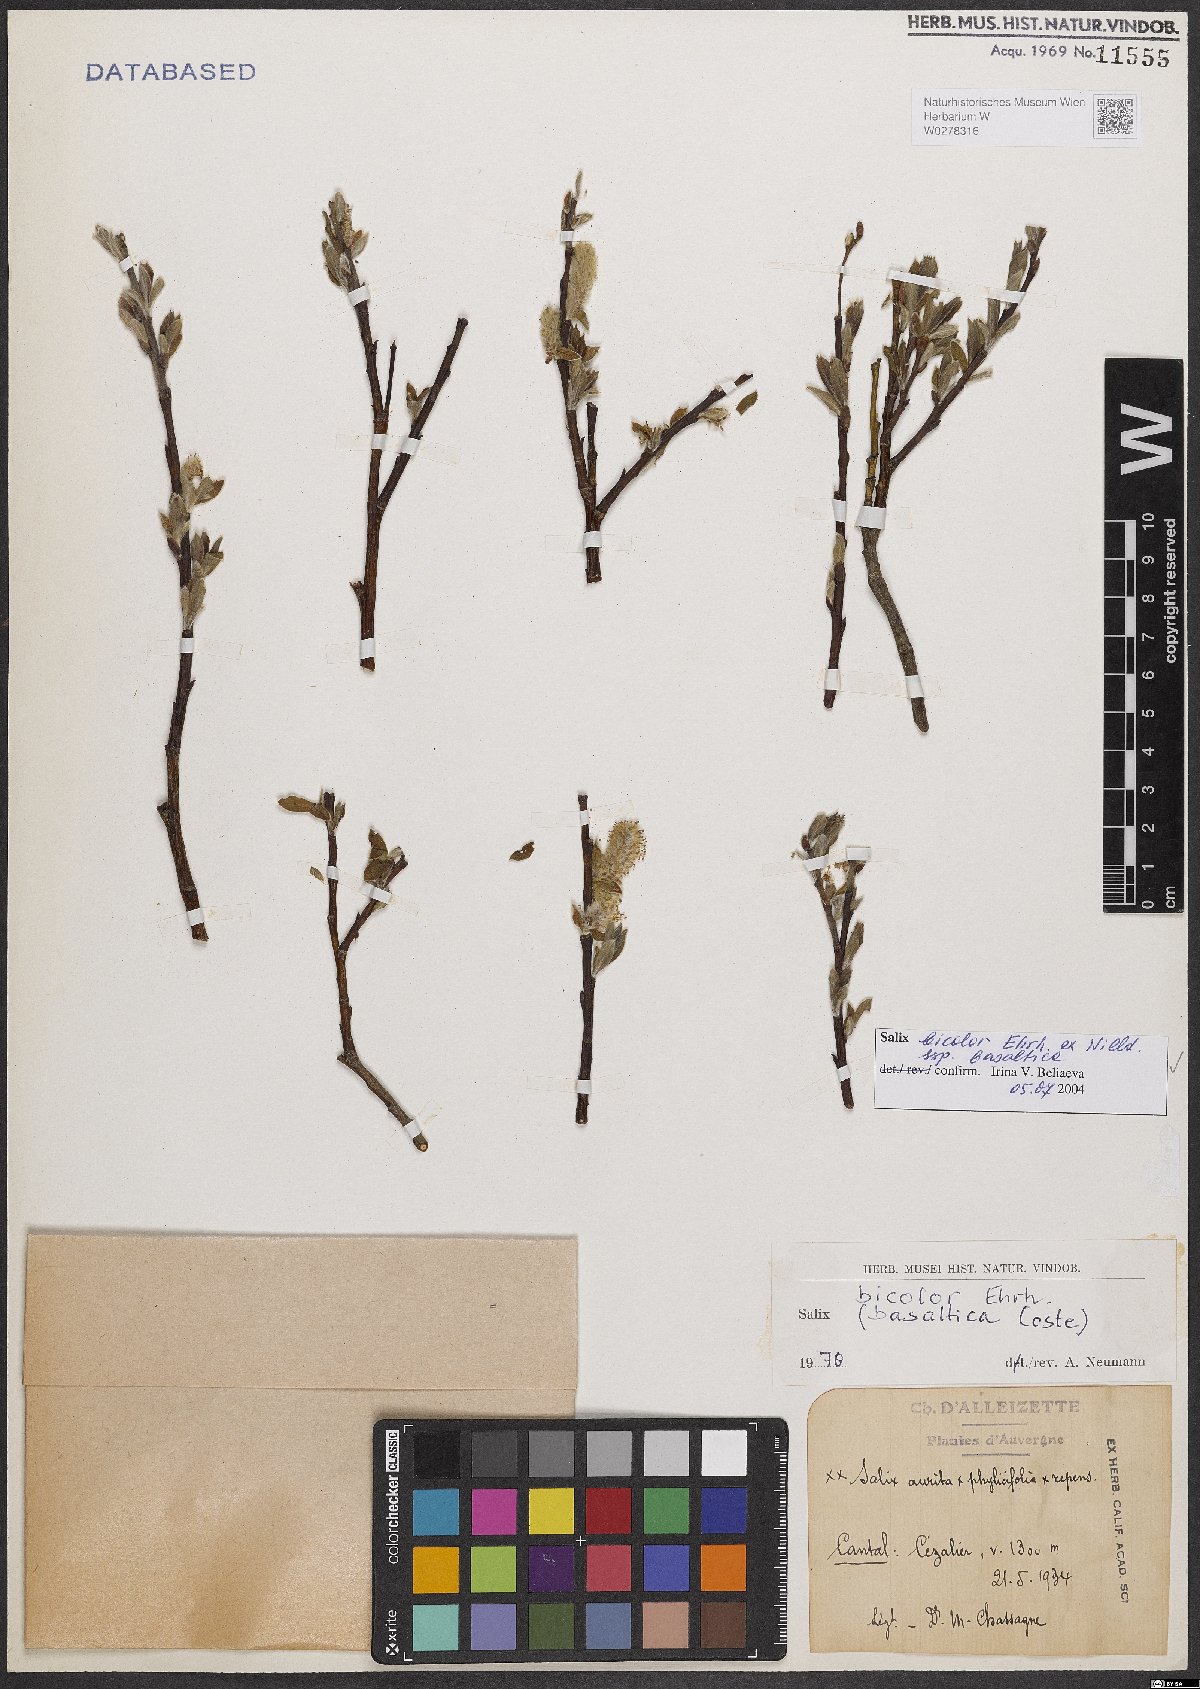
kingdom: Plantae
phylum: Tracheophyta
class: Magnoliopsida
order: Malpighiales
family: Salicaceae
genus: Salix
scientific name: Salix basaltica
